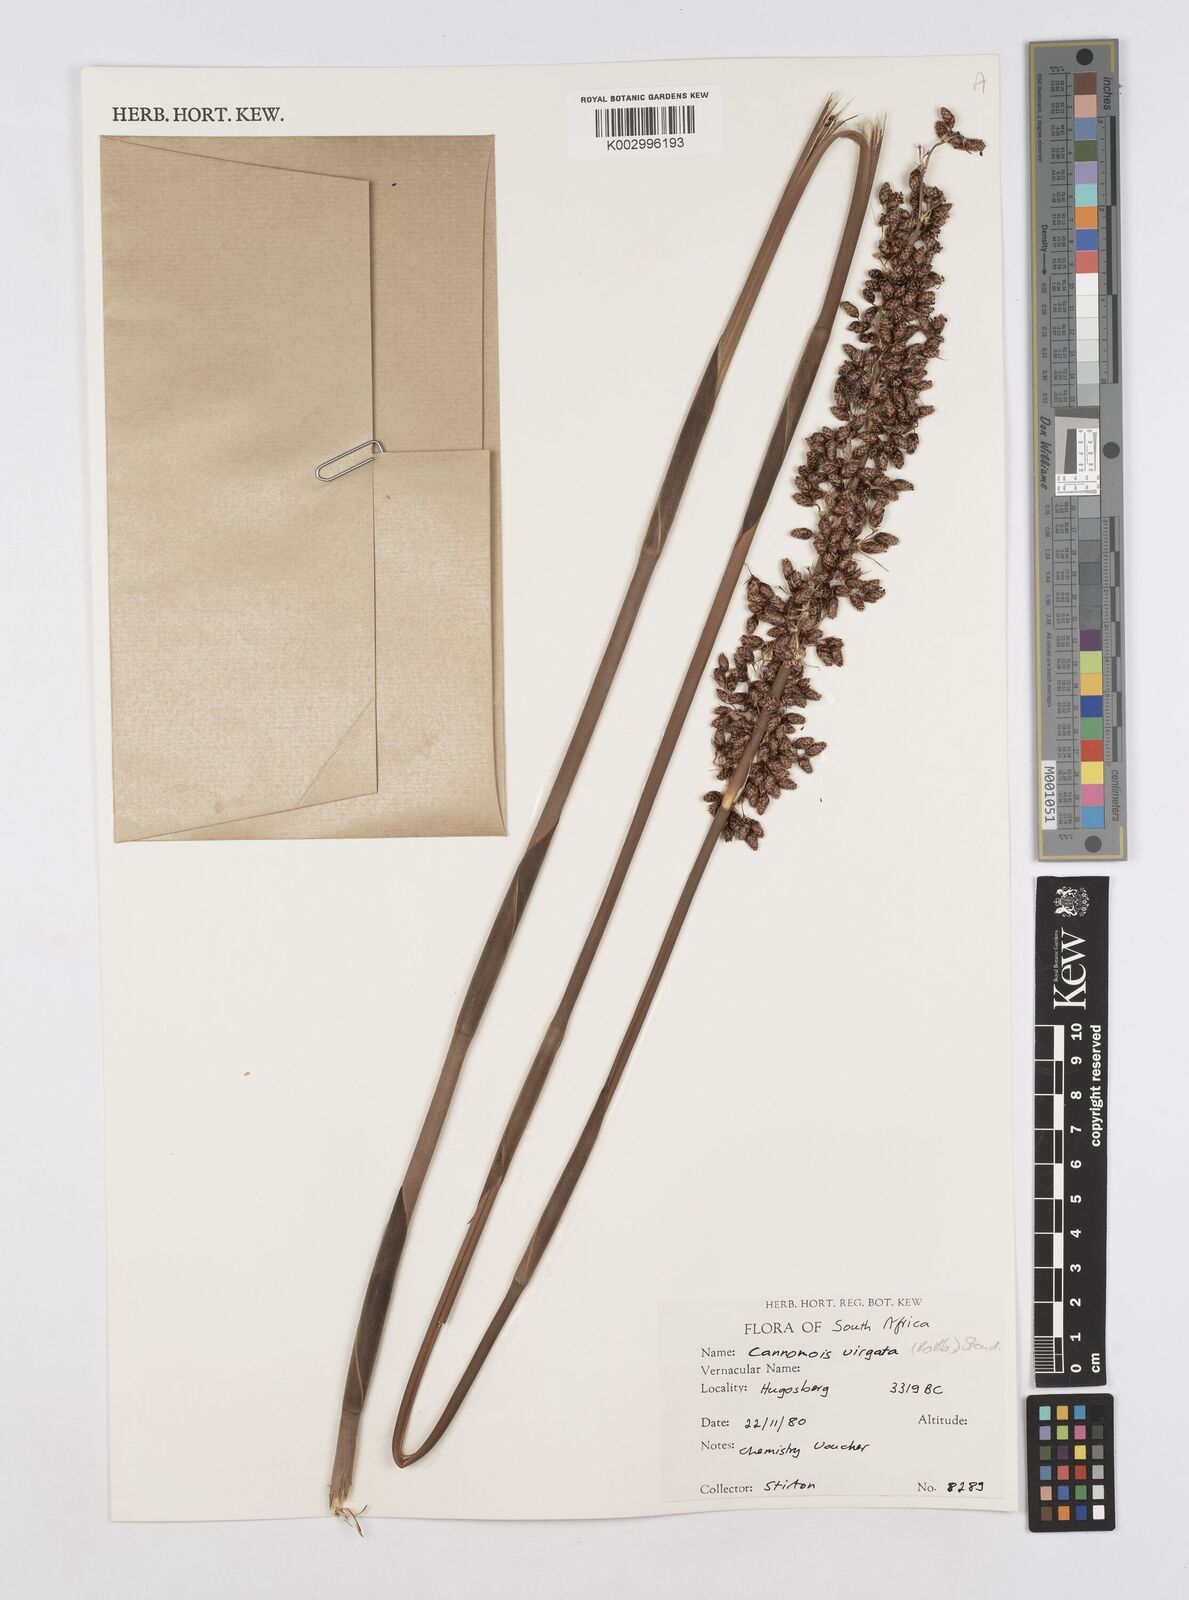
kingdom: Plantae
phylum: Tracheophyta
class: Liliopsida
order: Poales
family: Restionaceae
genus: Cannomois
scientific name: Cannomois virgata
